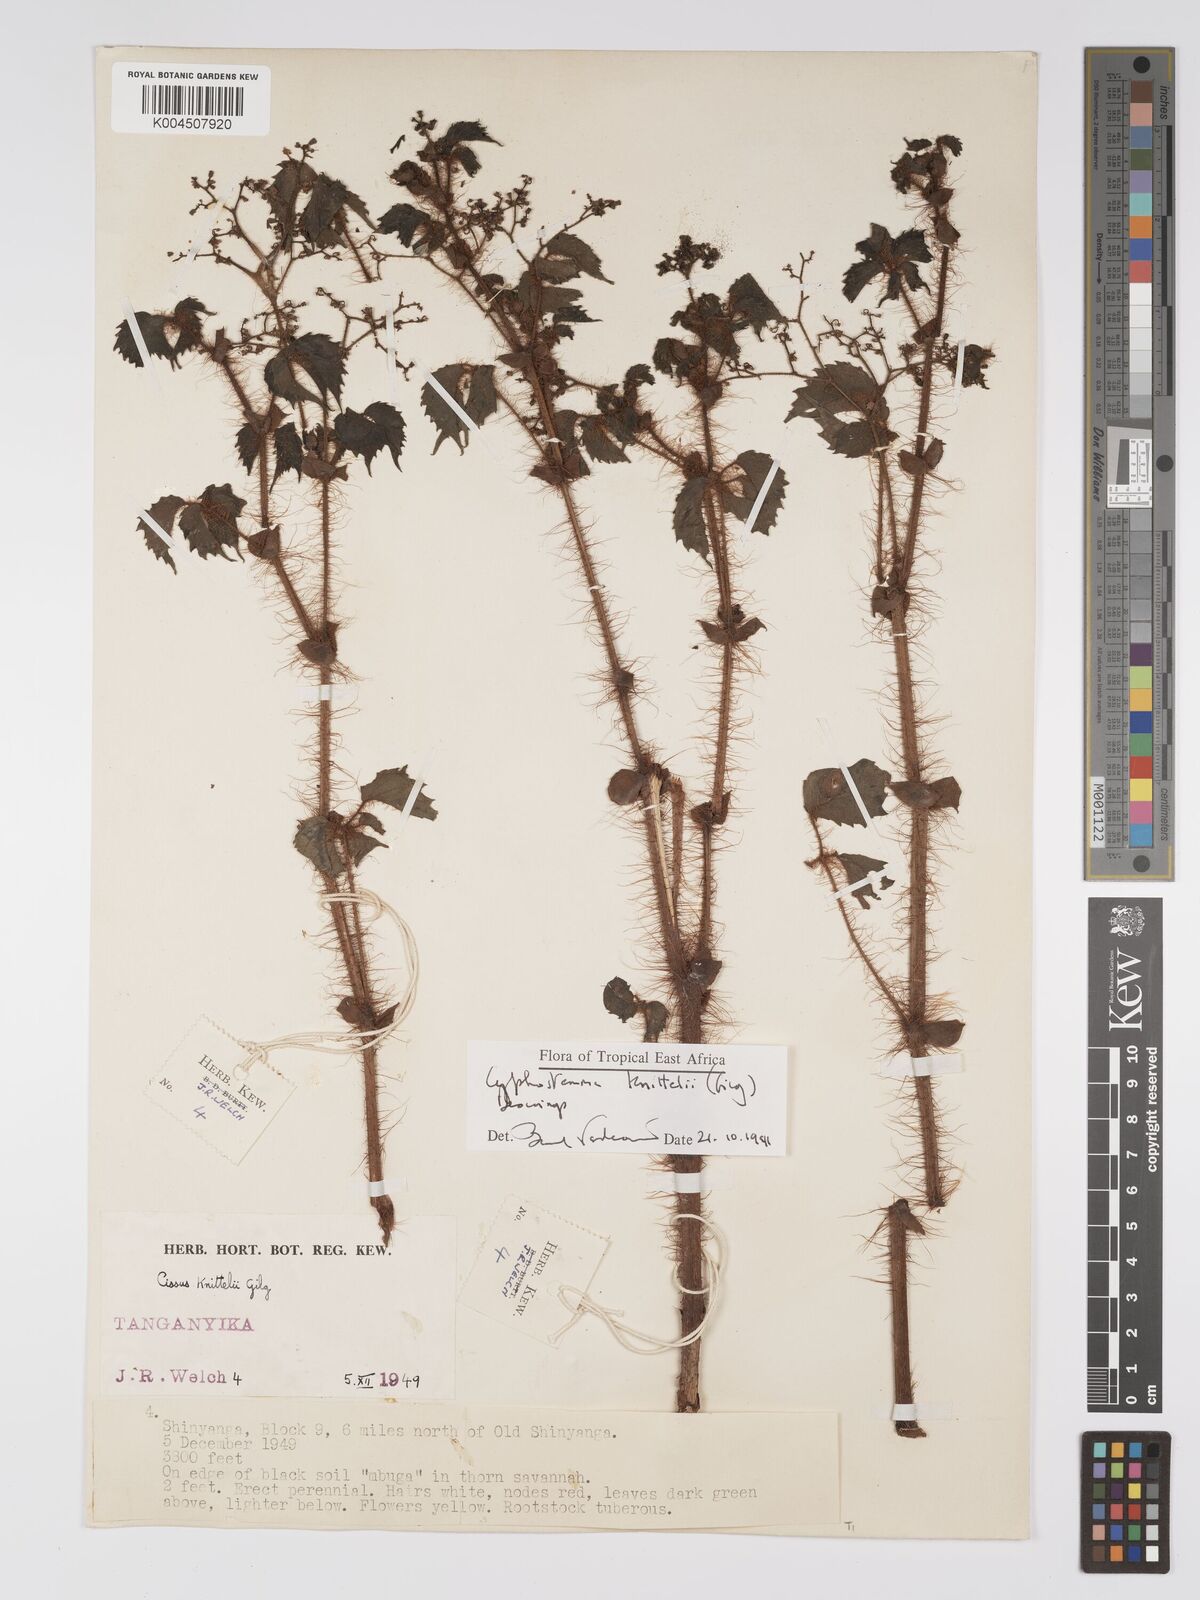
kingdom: Plantae
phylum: Tracheophyta
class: Magnoliopsida
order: Vitales
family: Vitaceae
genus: Cyphostemma
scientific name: Cyphostemma knittelii
